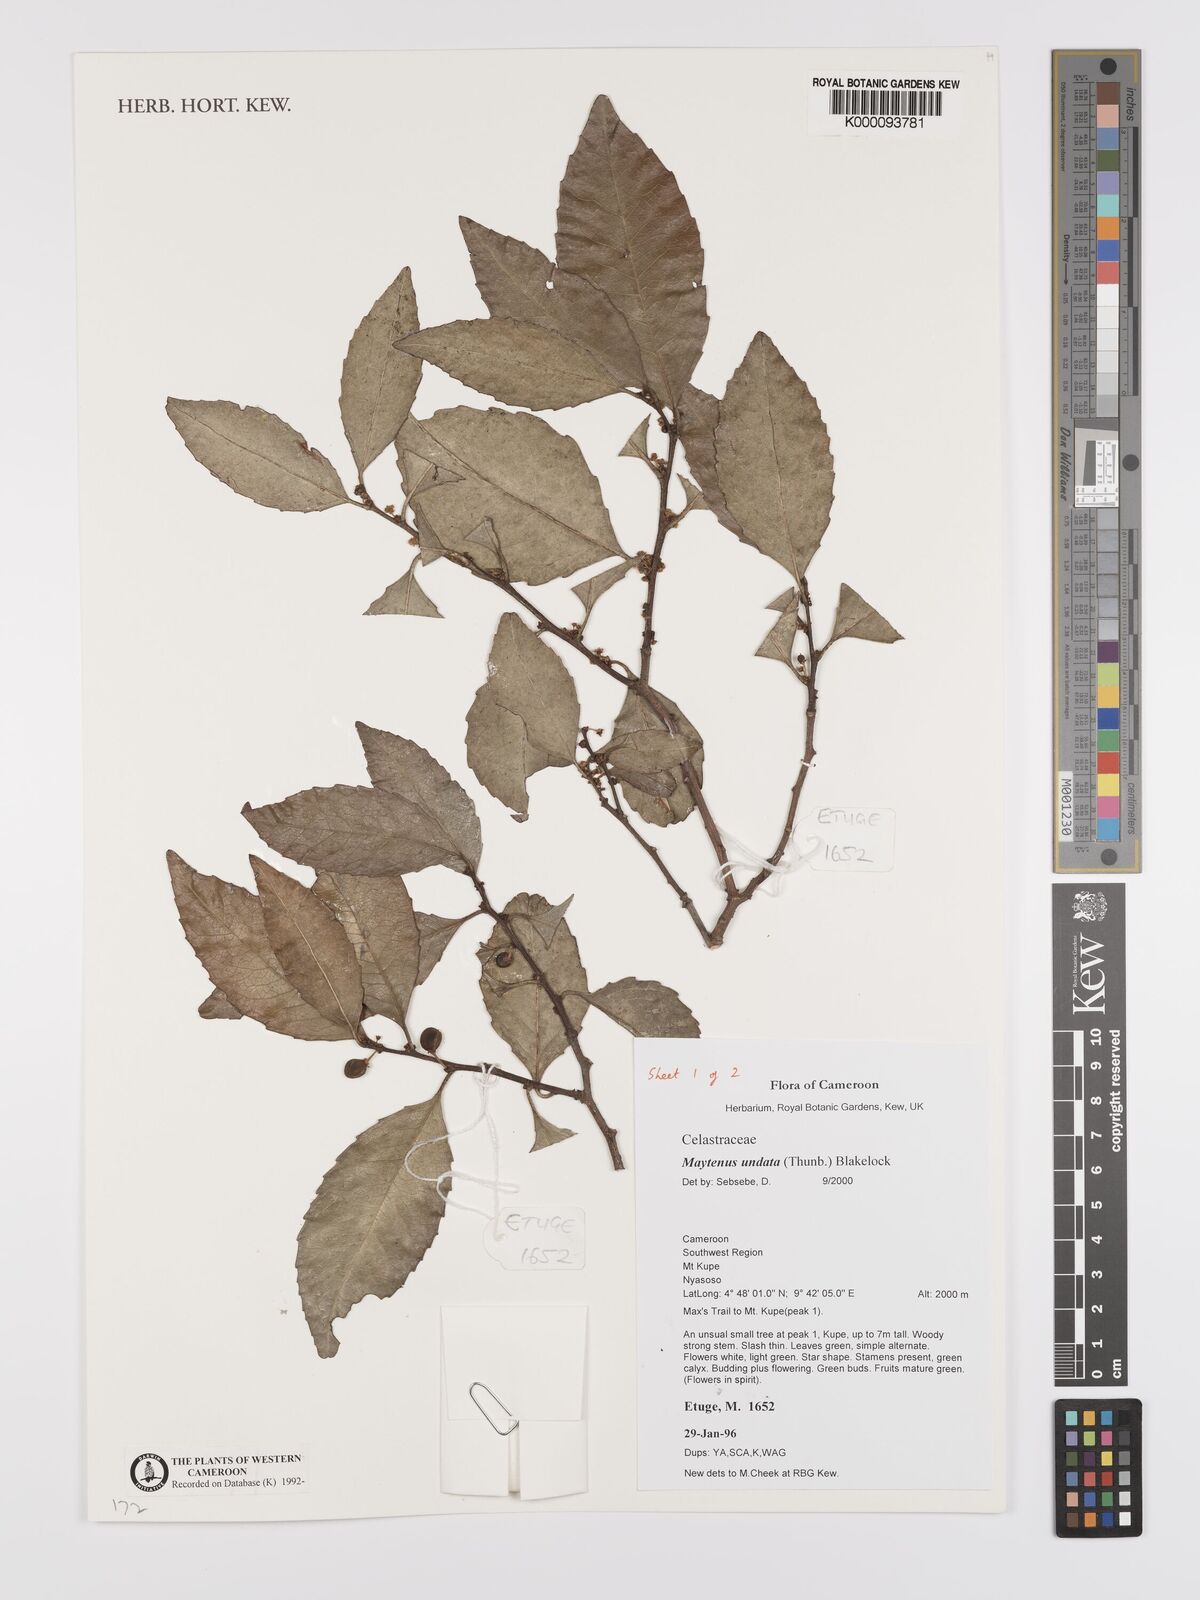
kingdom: Plantae
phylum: Tracheophyta
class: Magnoliopsida
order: Celastrales
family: Celastraceae
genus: Gymnosporia
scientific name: Gymnosporia undata
